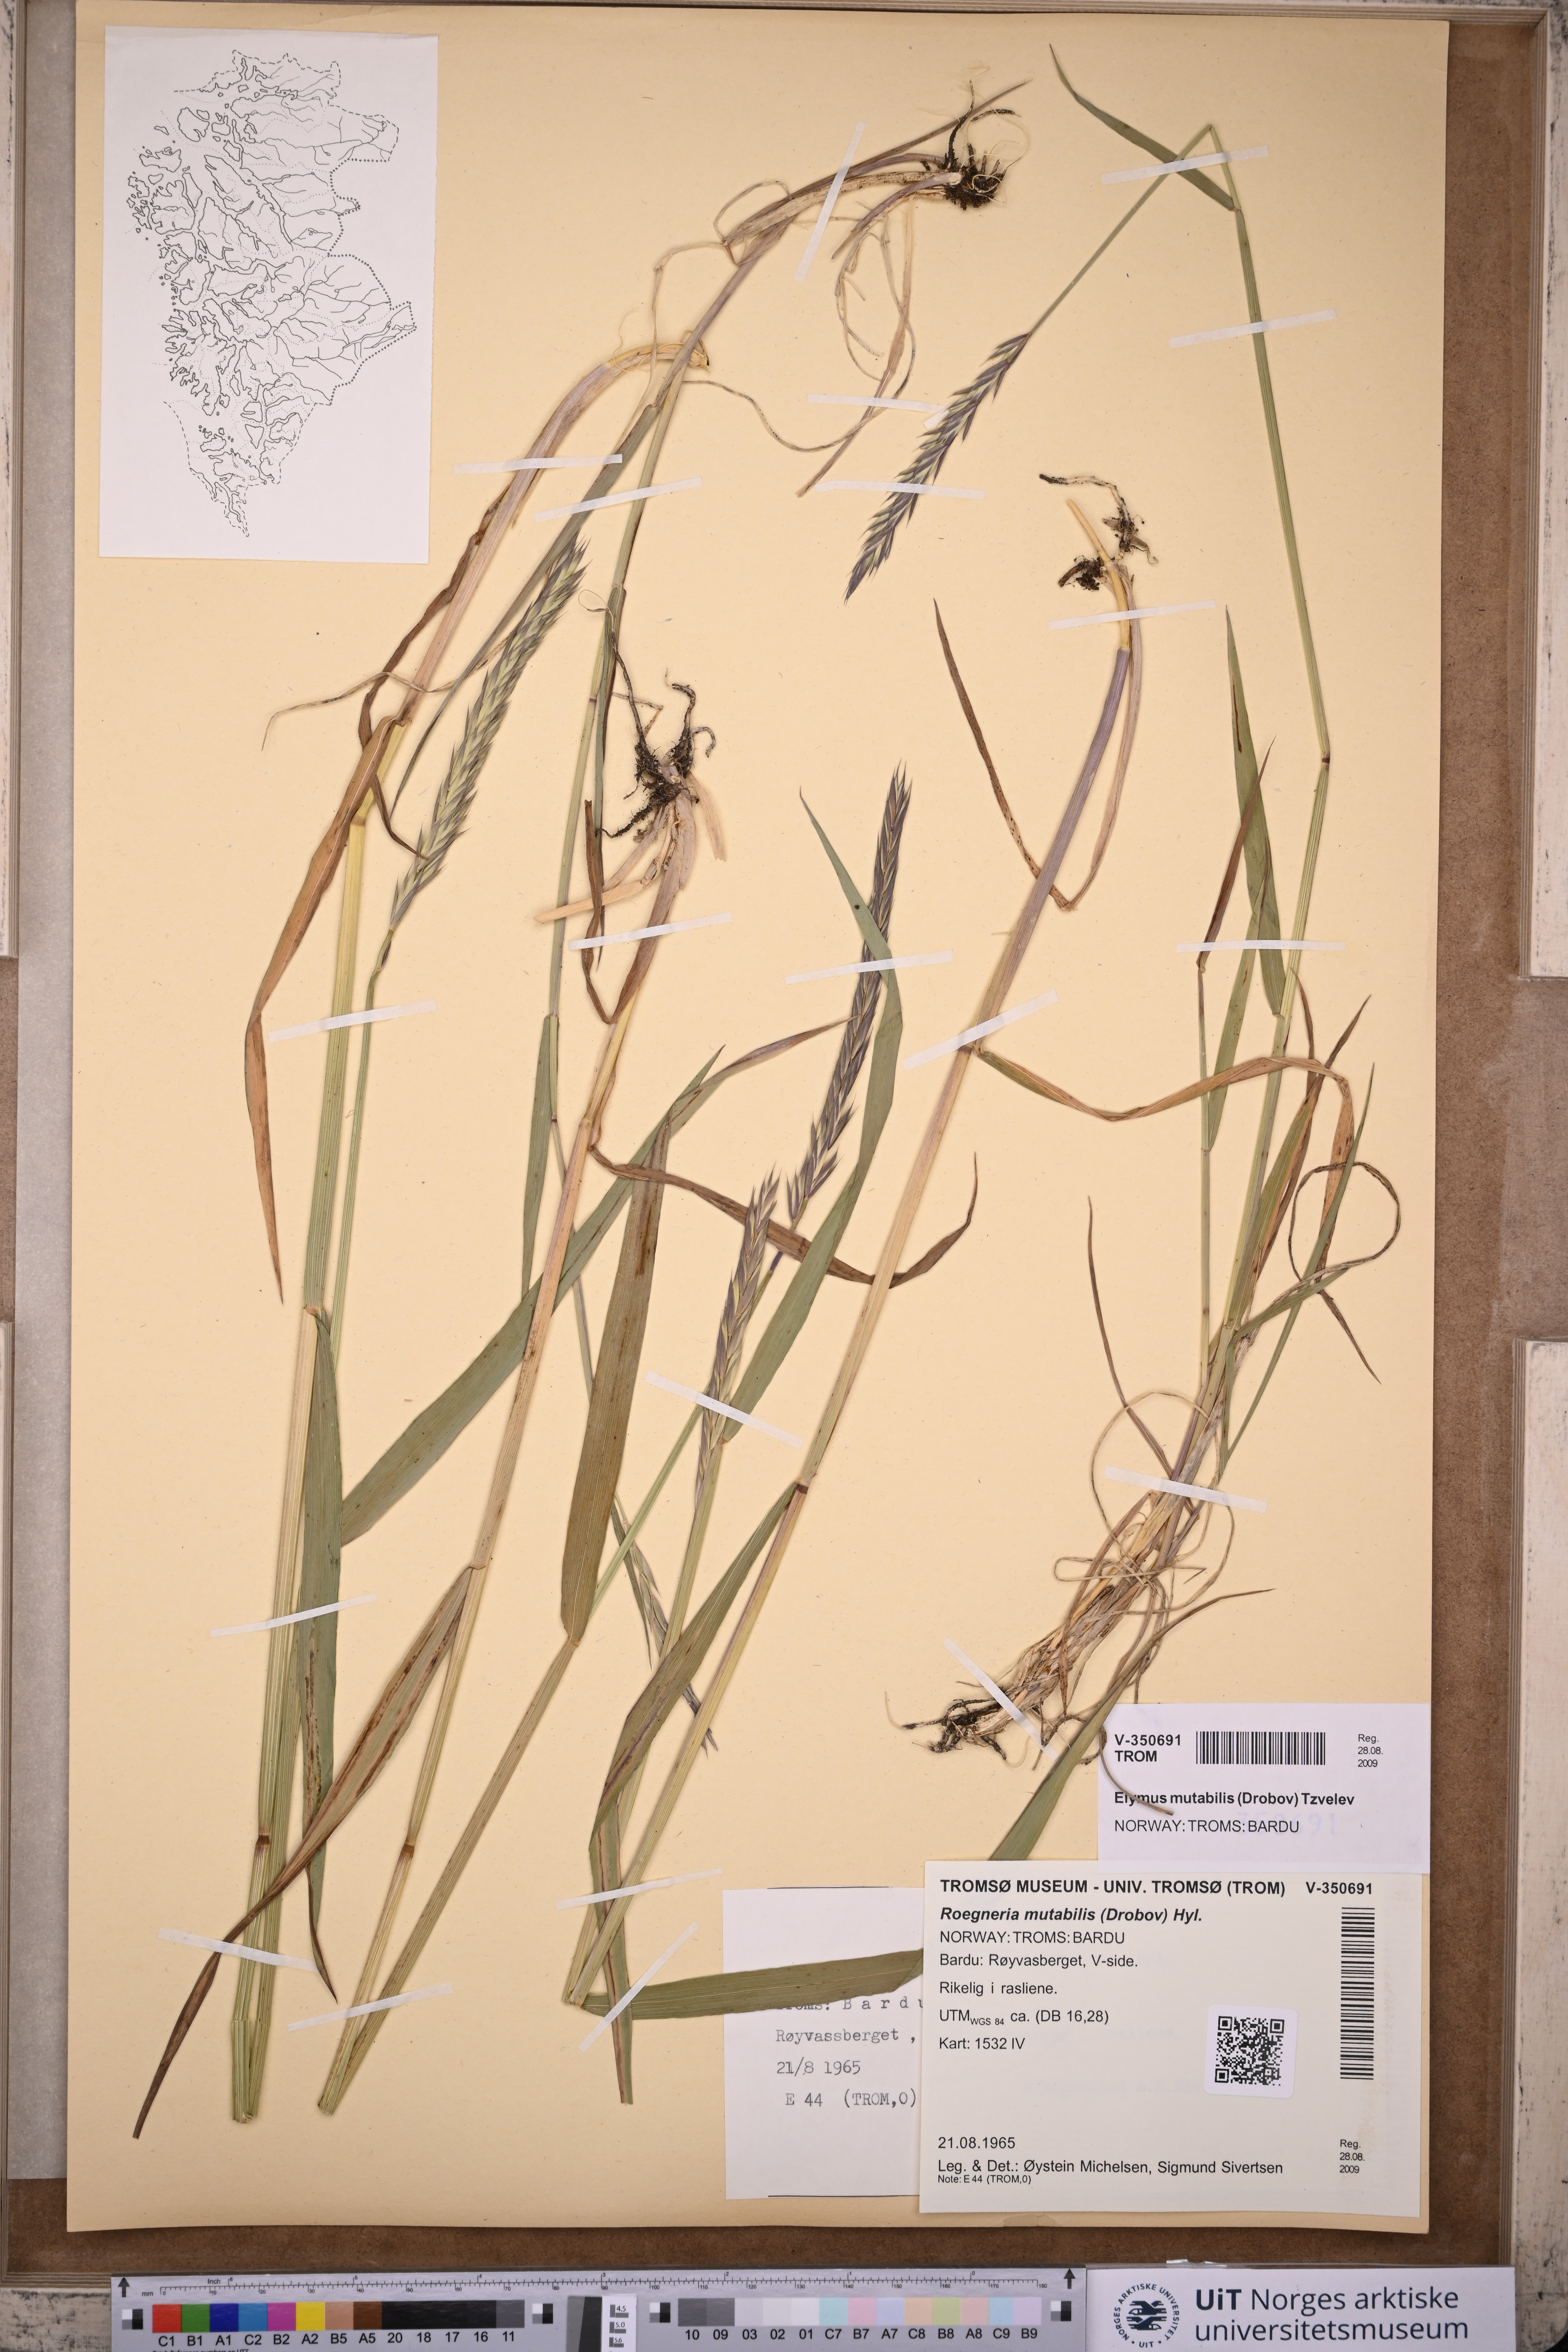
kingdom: Plantae
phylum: Tracheophyta
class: Liliopsida
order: Poales
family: Poaceae
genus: Elymus
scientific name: Elymus mutabilis
